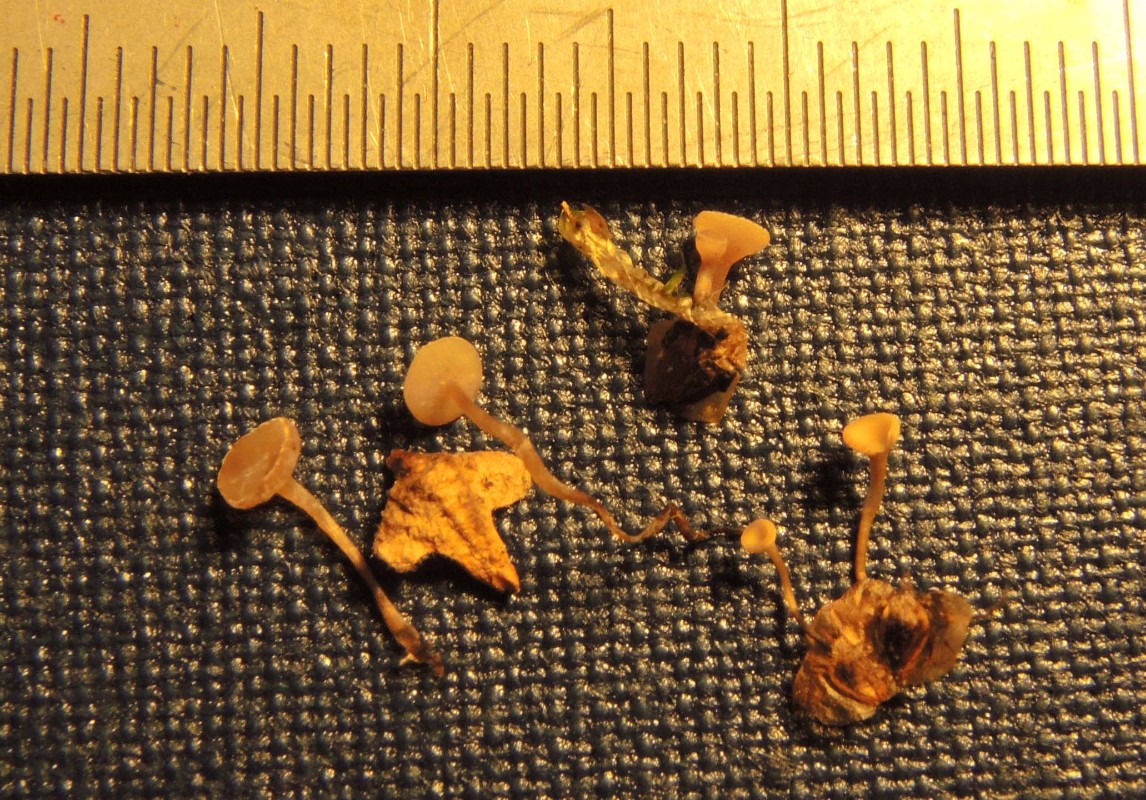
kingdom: Fungi
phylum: Ascomycota
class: Leotiomycetes
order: Helotiales
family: Sclerotiniaceae
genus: Ciboria
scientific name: Ciboria betulae
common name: birkefrø-knoldskive
